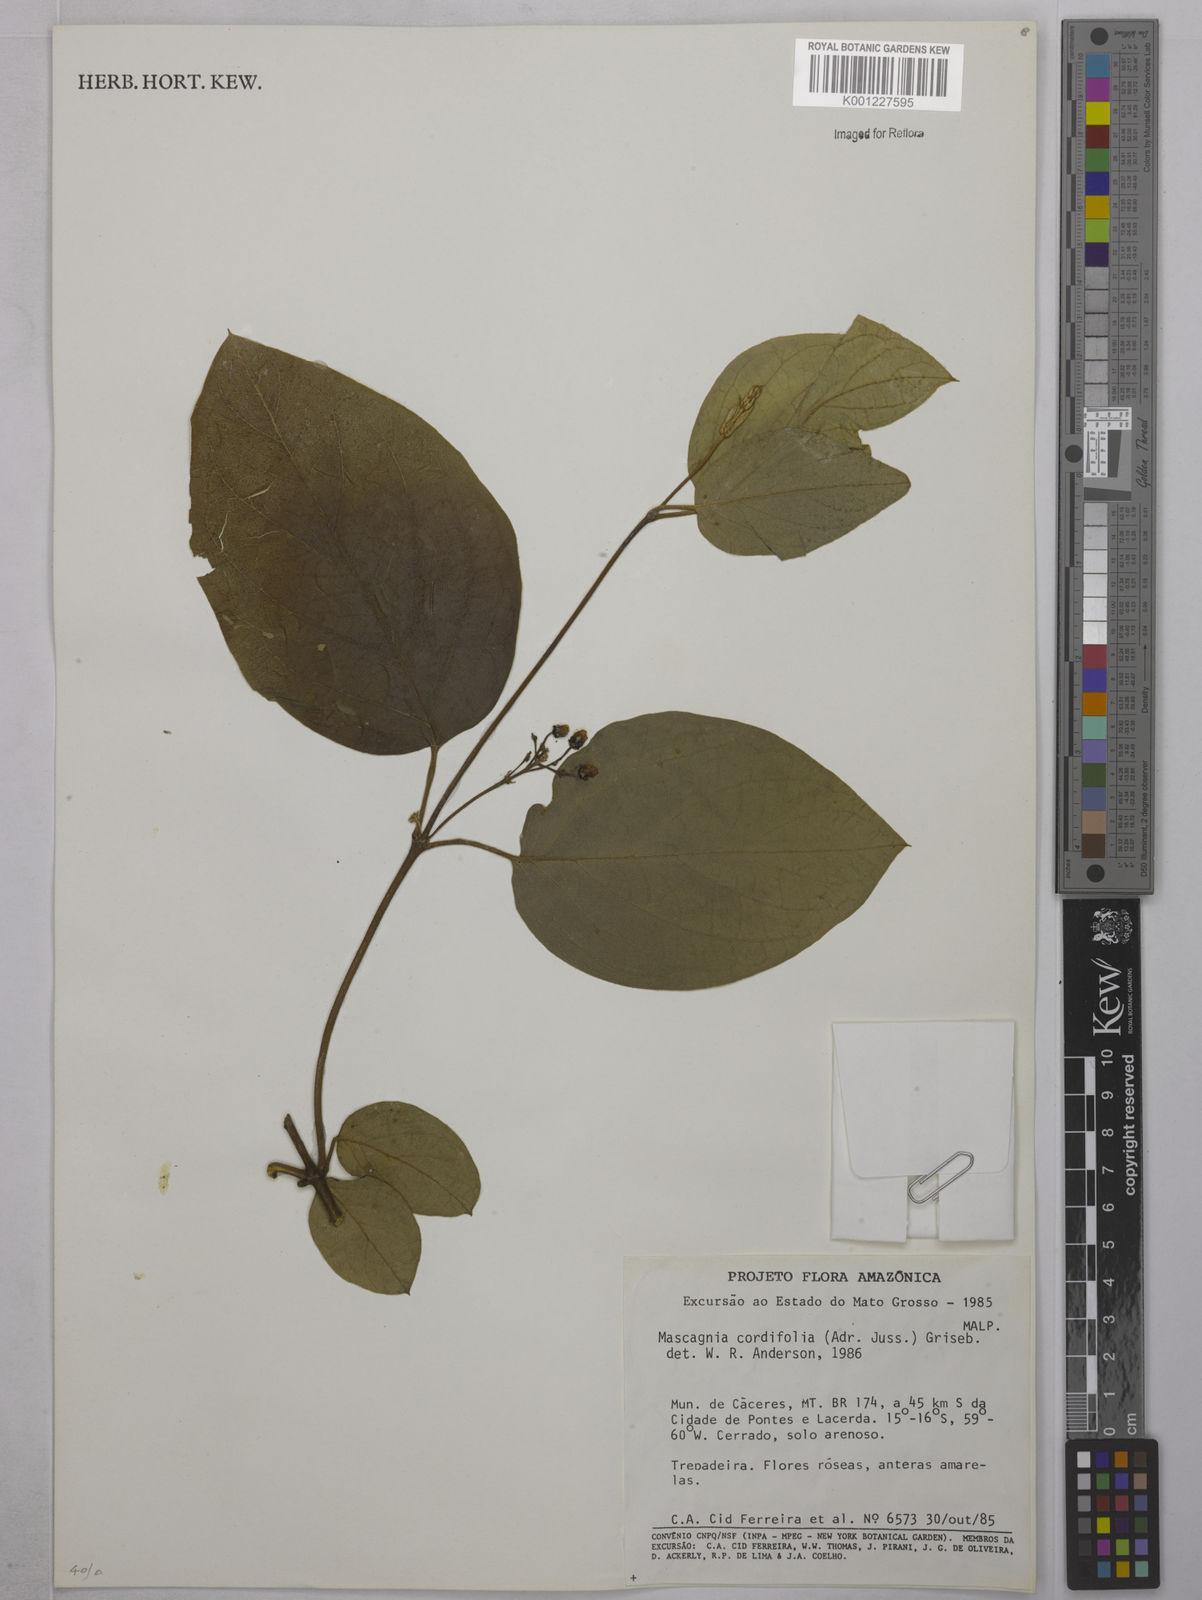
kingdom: Plantae
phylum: Tracheophyta
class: Magnoliopsida
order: Malpighiales
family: Malpighiaceae
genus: Mascagnia
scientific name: Mascagnia cordifolia
